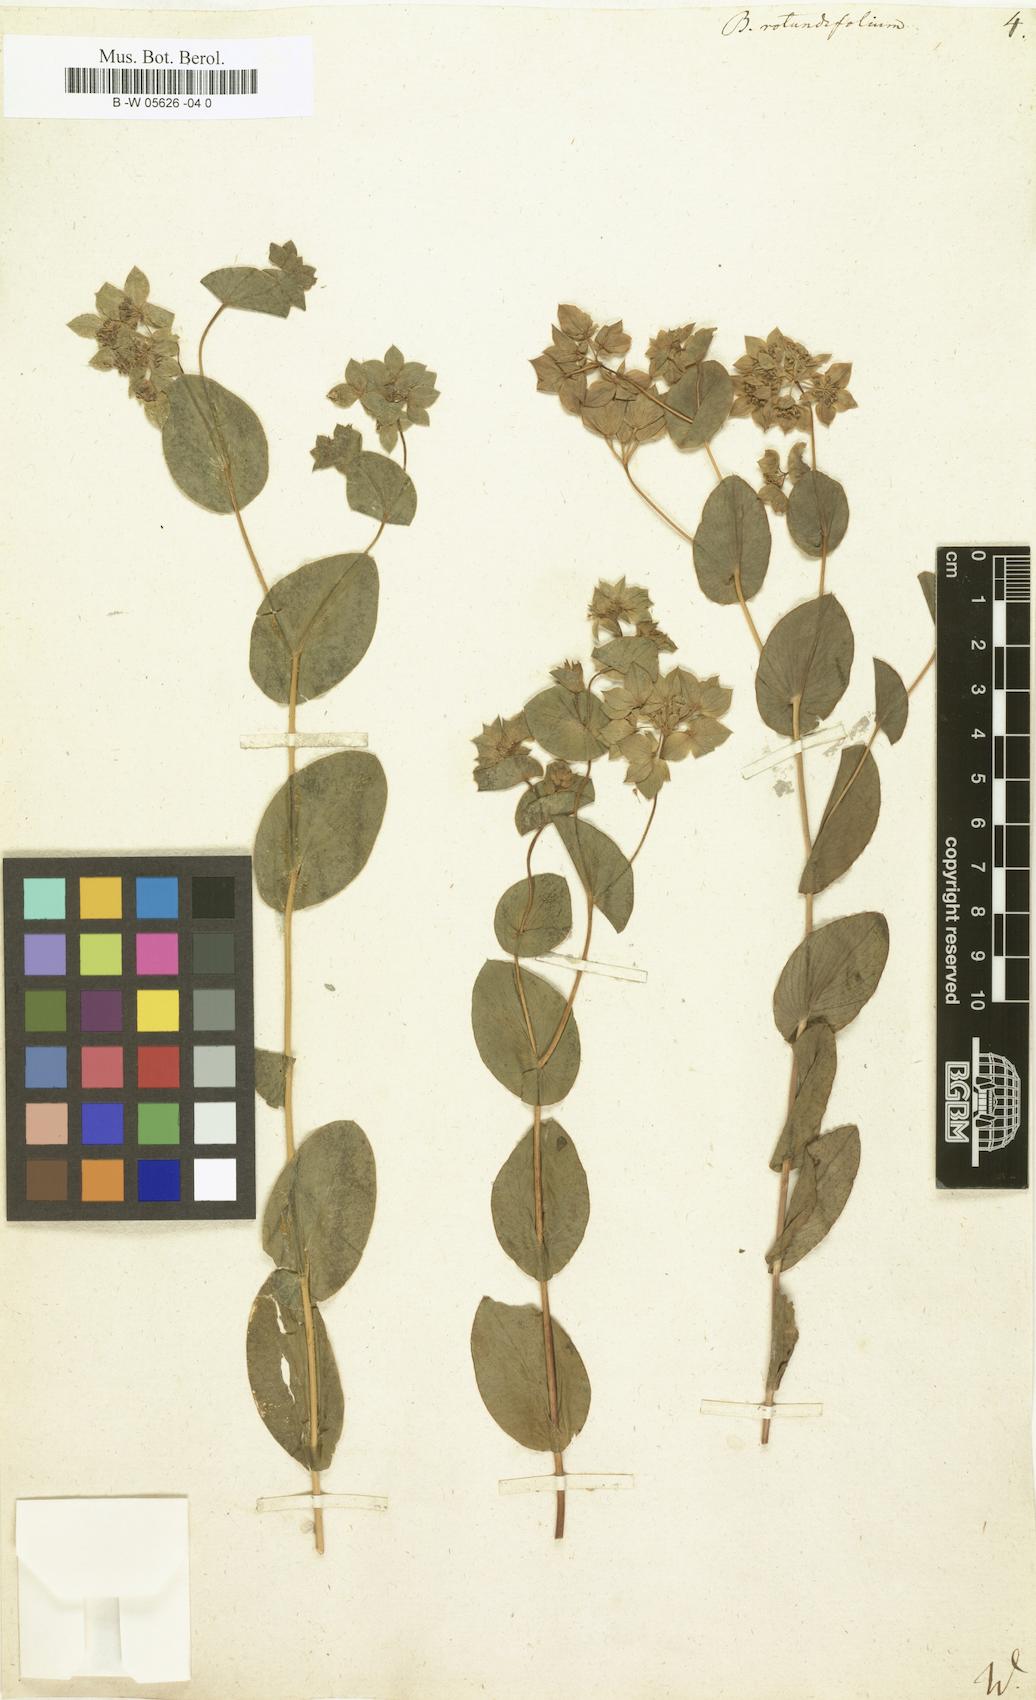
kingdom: Plantae
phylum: Tracheophyta
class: Magnoliopsida
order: Apiales
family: Apiaceae
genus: Bupleurum
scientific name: Bupleurum rotundifolium
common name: Thorow-wax
